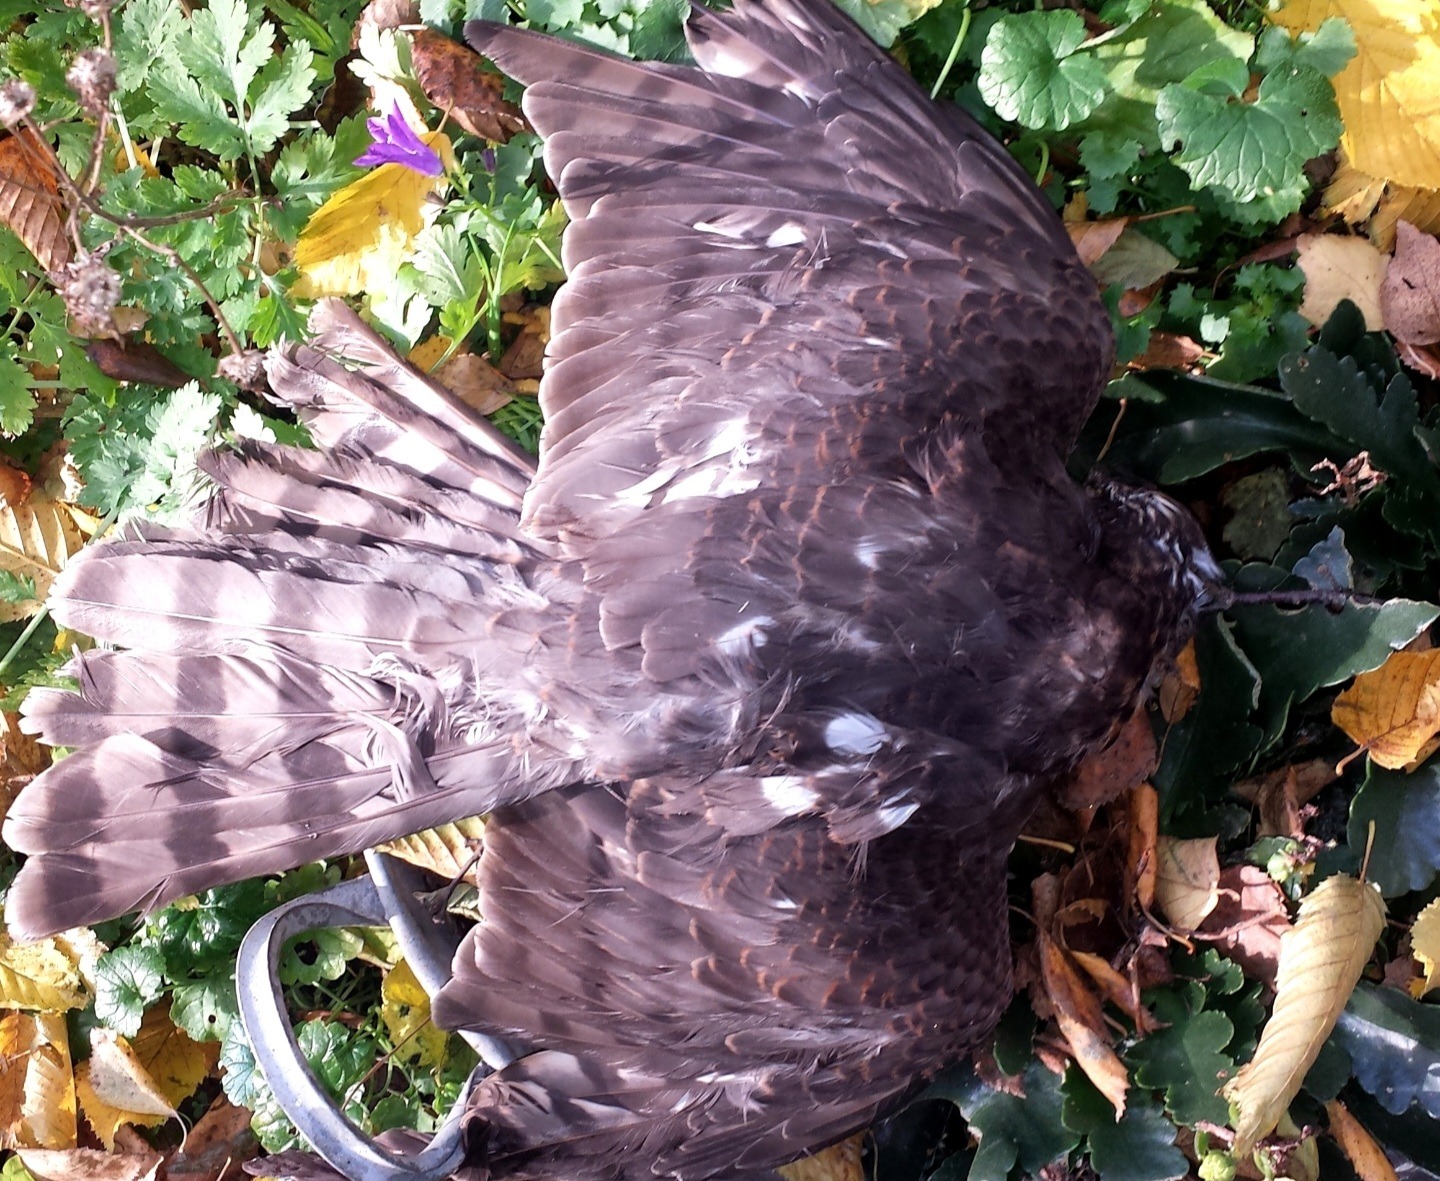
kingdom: Animalia
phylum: Chordata
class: Aves
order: Accipitriformes
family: Accipitridae
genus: Accipiter
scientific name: Accipiter nisus
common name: Spurvehøg
